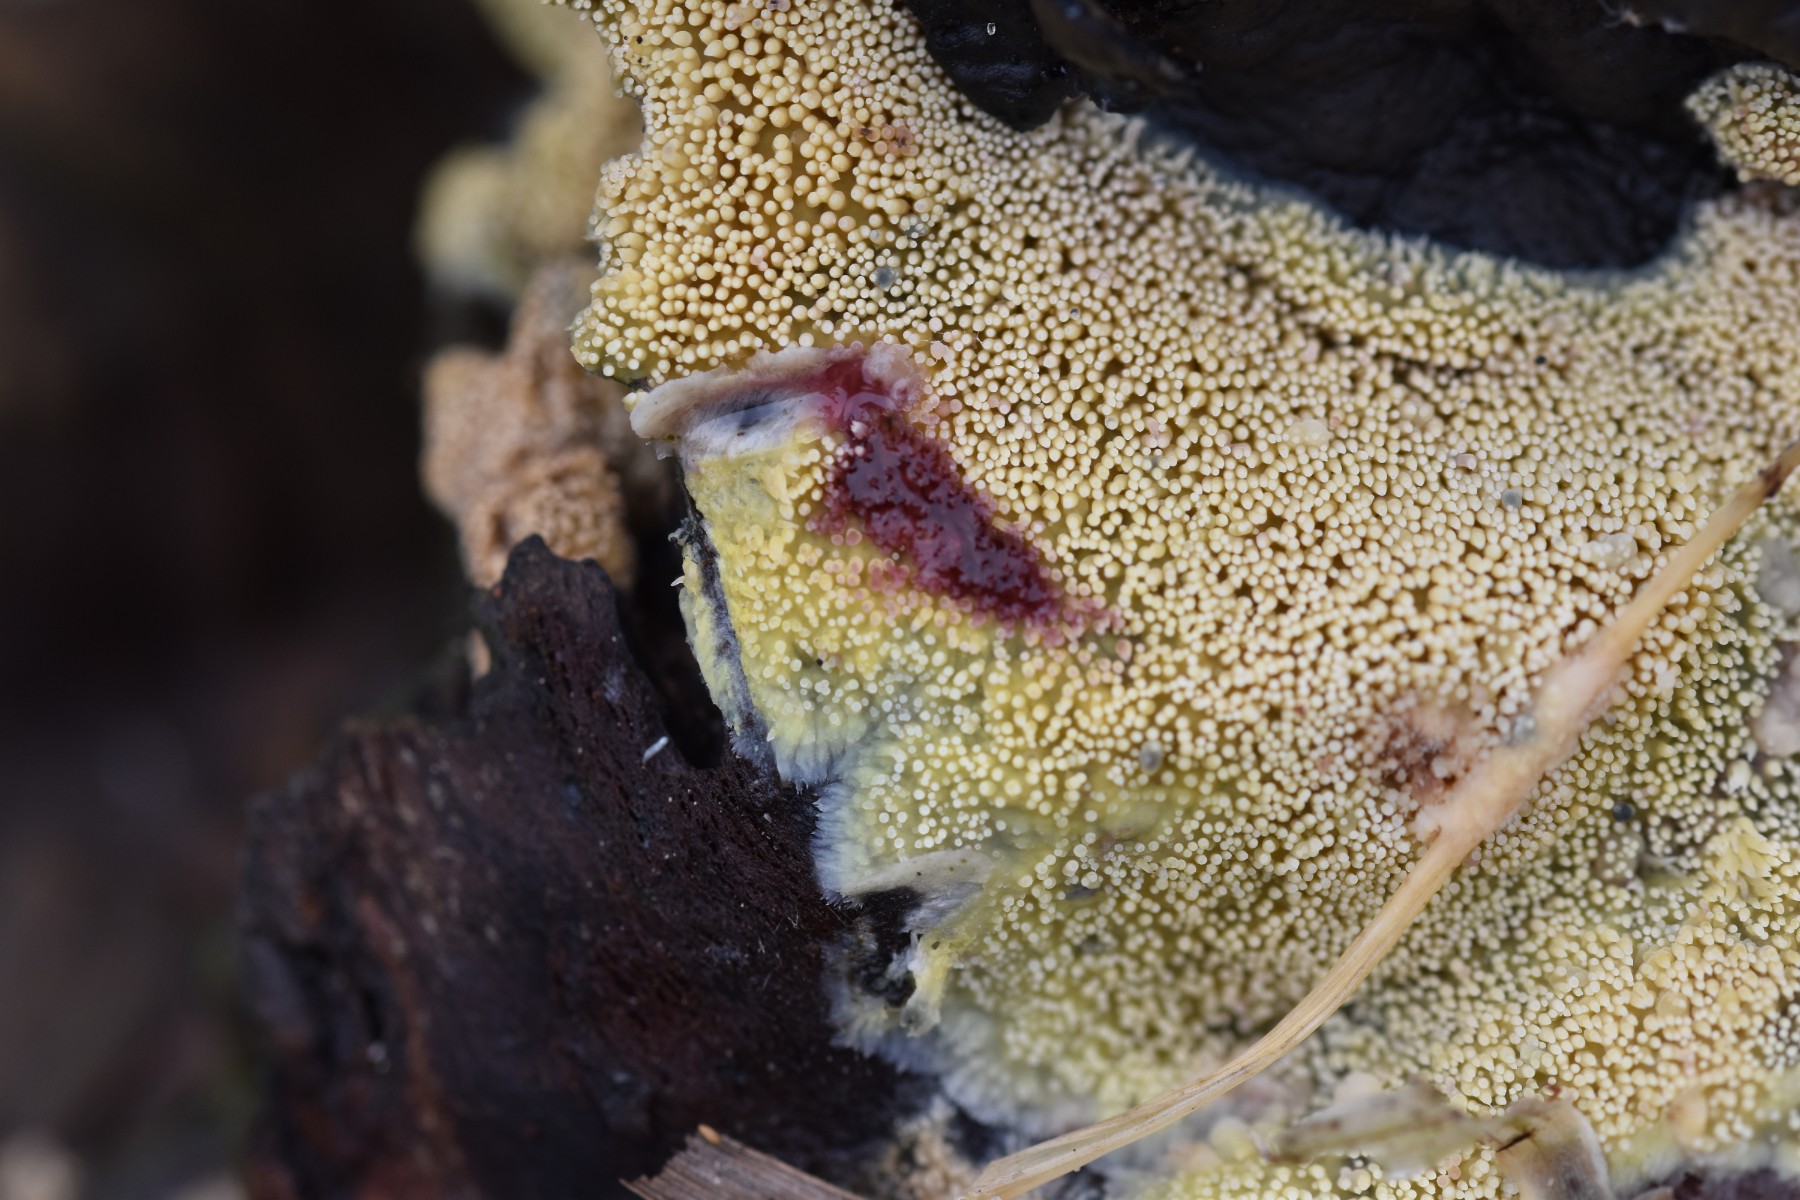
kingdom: Fungi
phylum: Basidiomycota
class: Agaricomycetes
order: Polyporales
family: Meruliaceae
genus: Mycoacia
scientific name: Mycoacia uda
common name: citrongul vokspig
